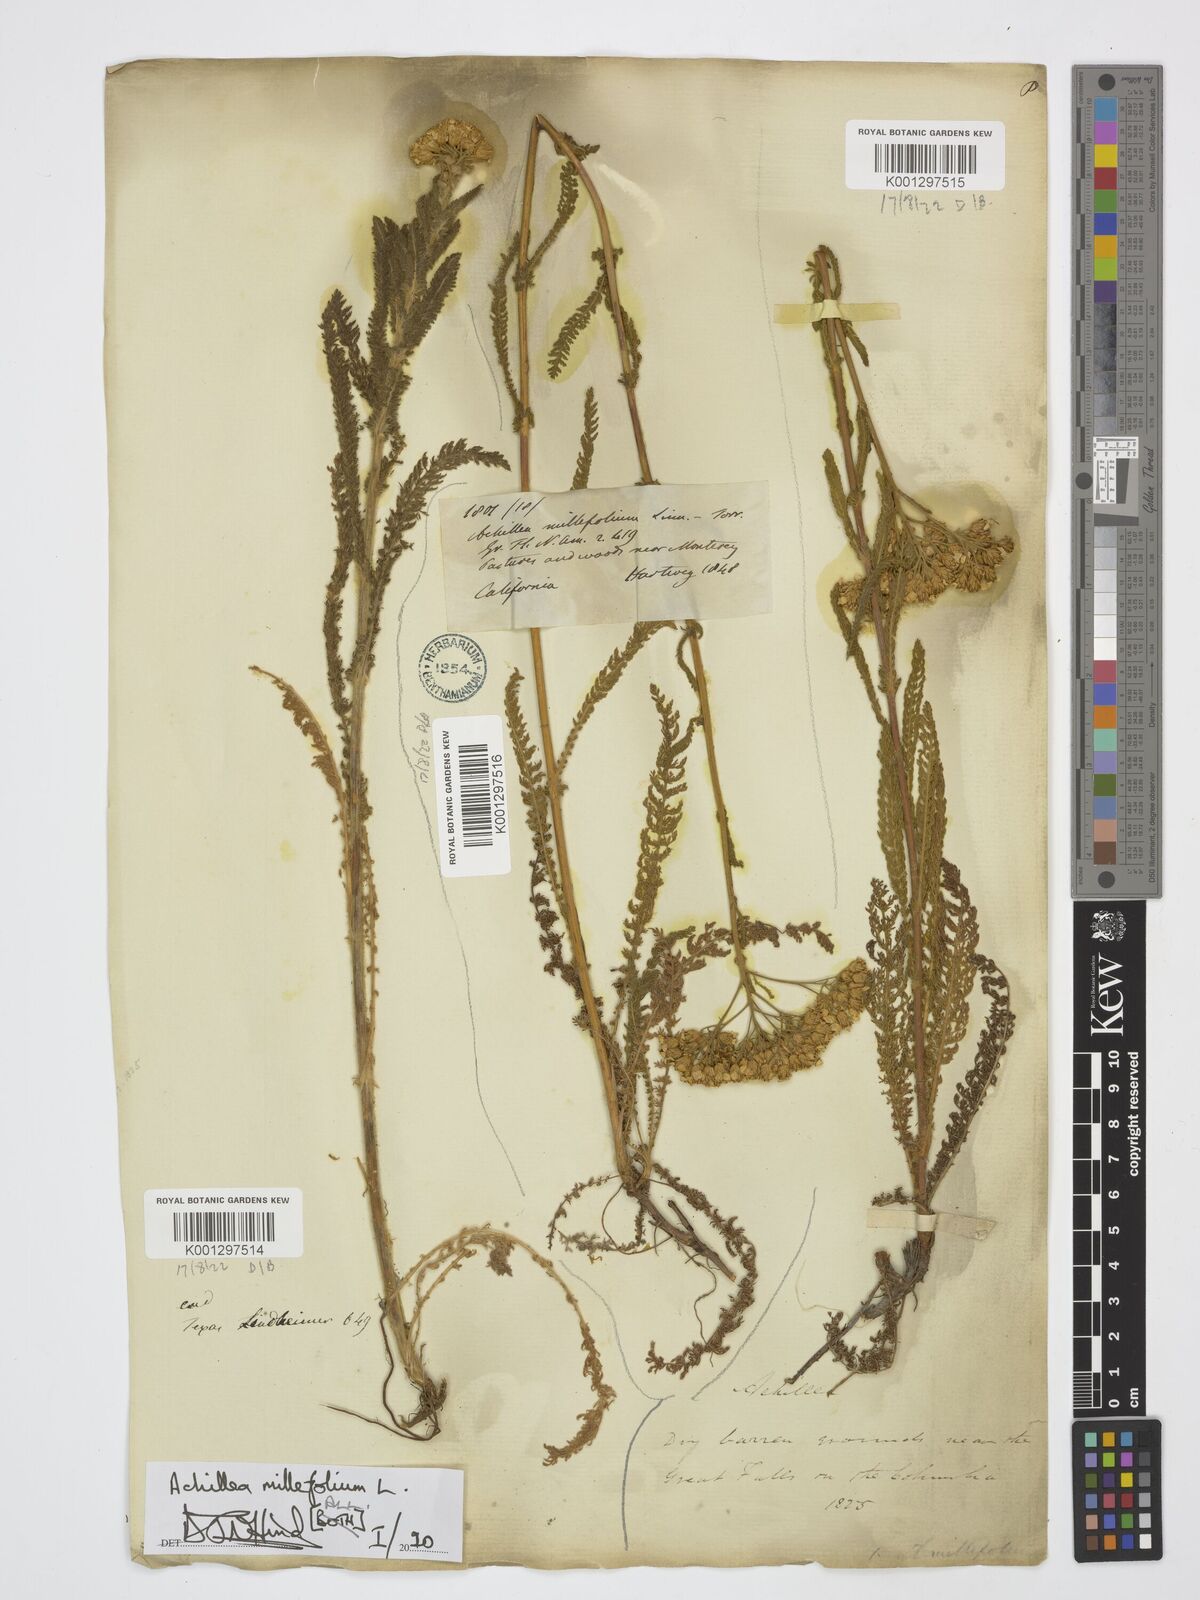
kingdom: Plantae
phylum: Tracheophyta
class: Magnoliopsida
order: Asterales
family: Asteraceae
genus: Achillea
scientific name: Achillea millefolium
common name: Yarrow
